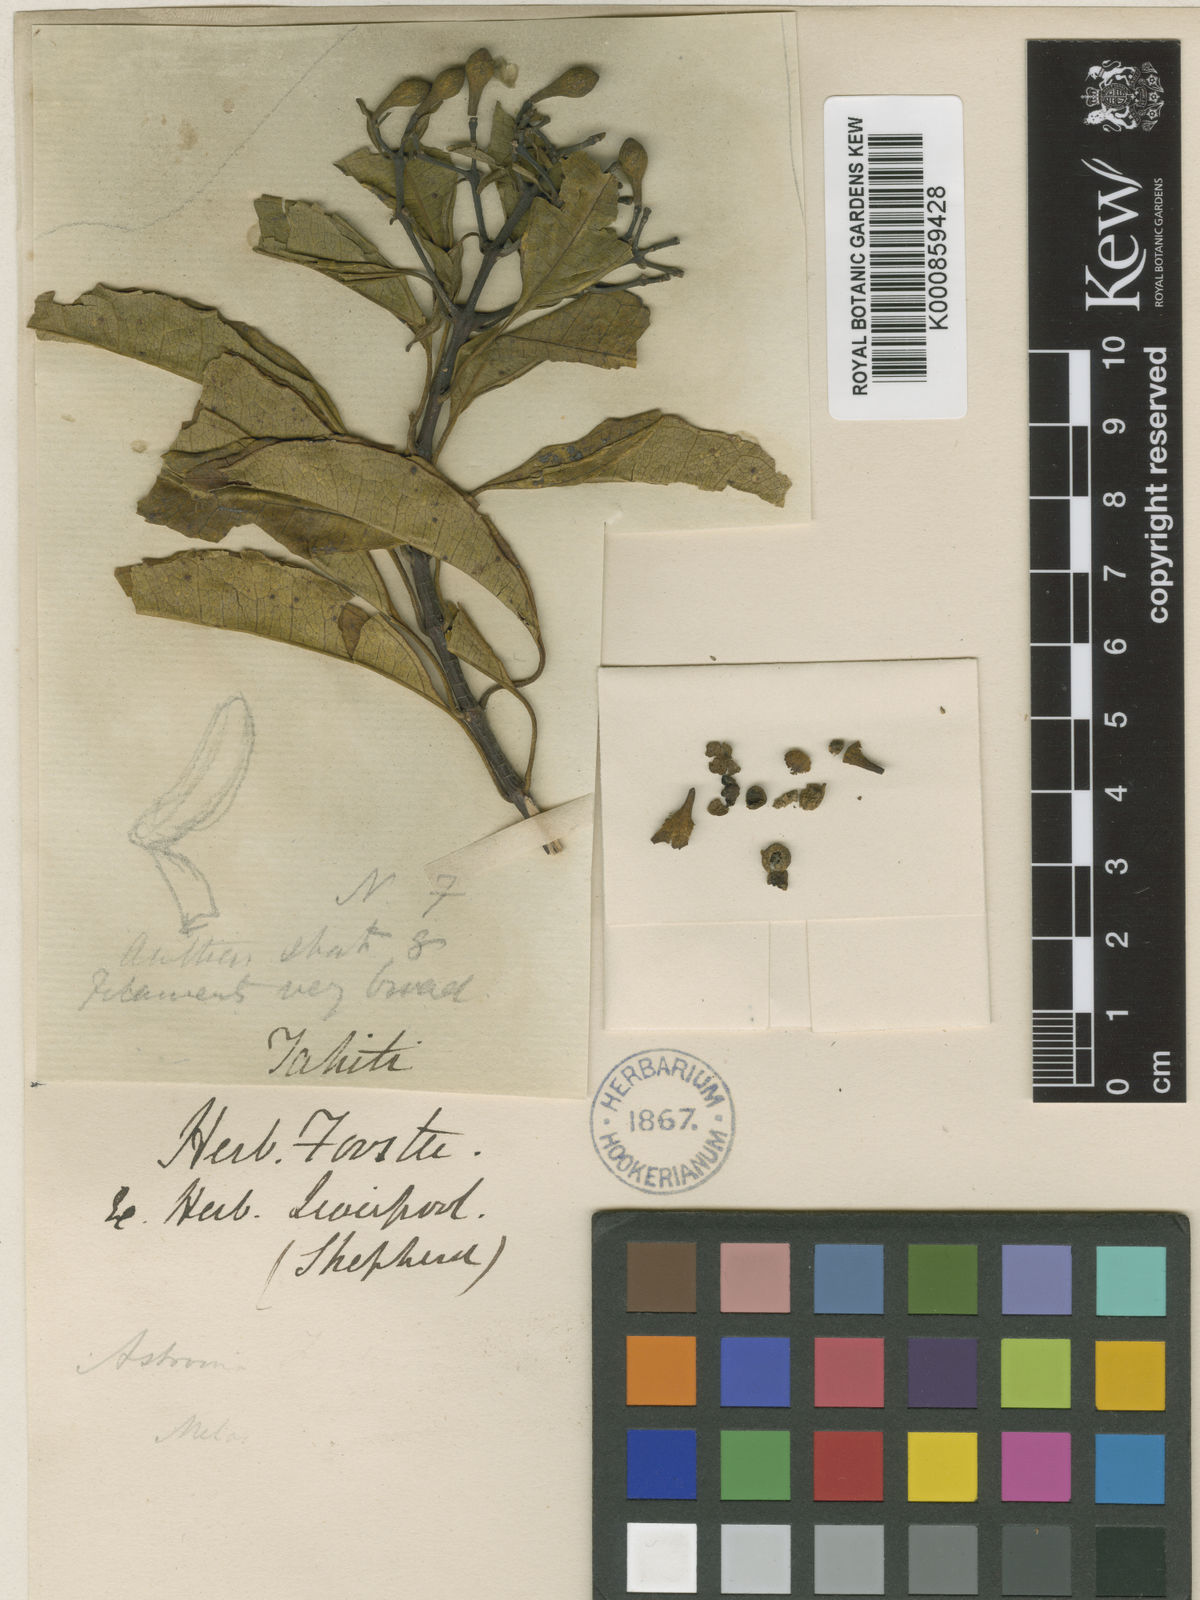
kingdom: Plantae
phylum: Tracheophyta
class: Magnoliopsida
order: Myrtales
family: Melastomataceae
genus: Astronidium
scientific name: Astronidium glabrum
